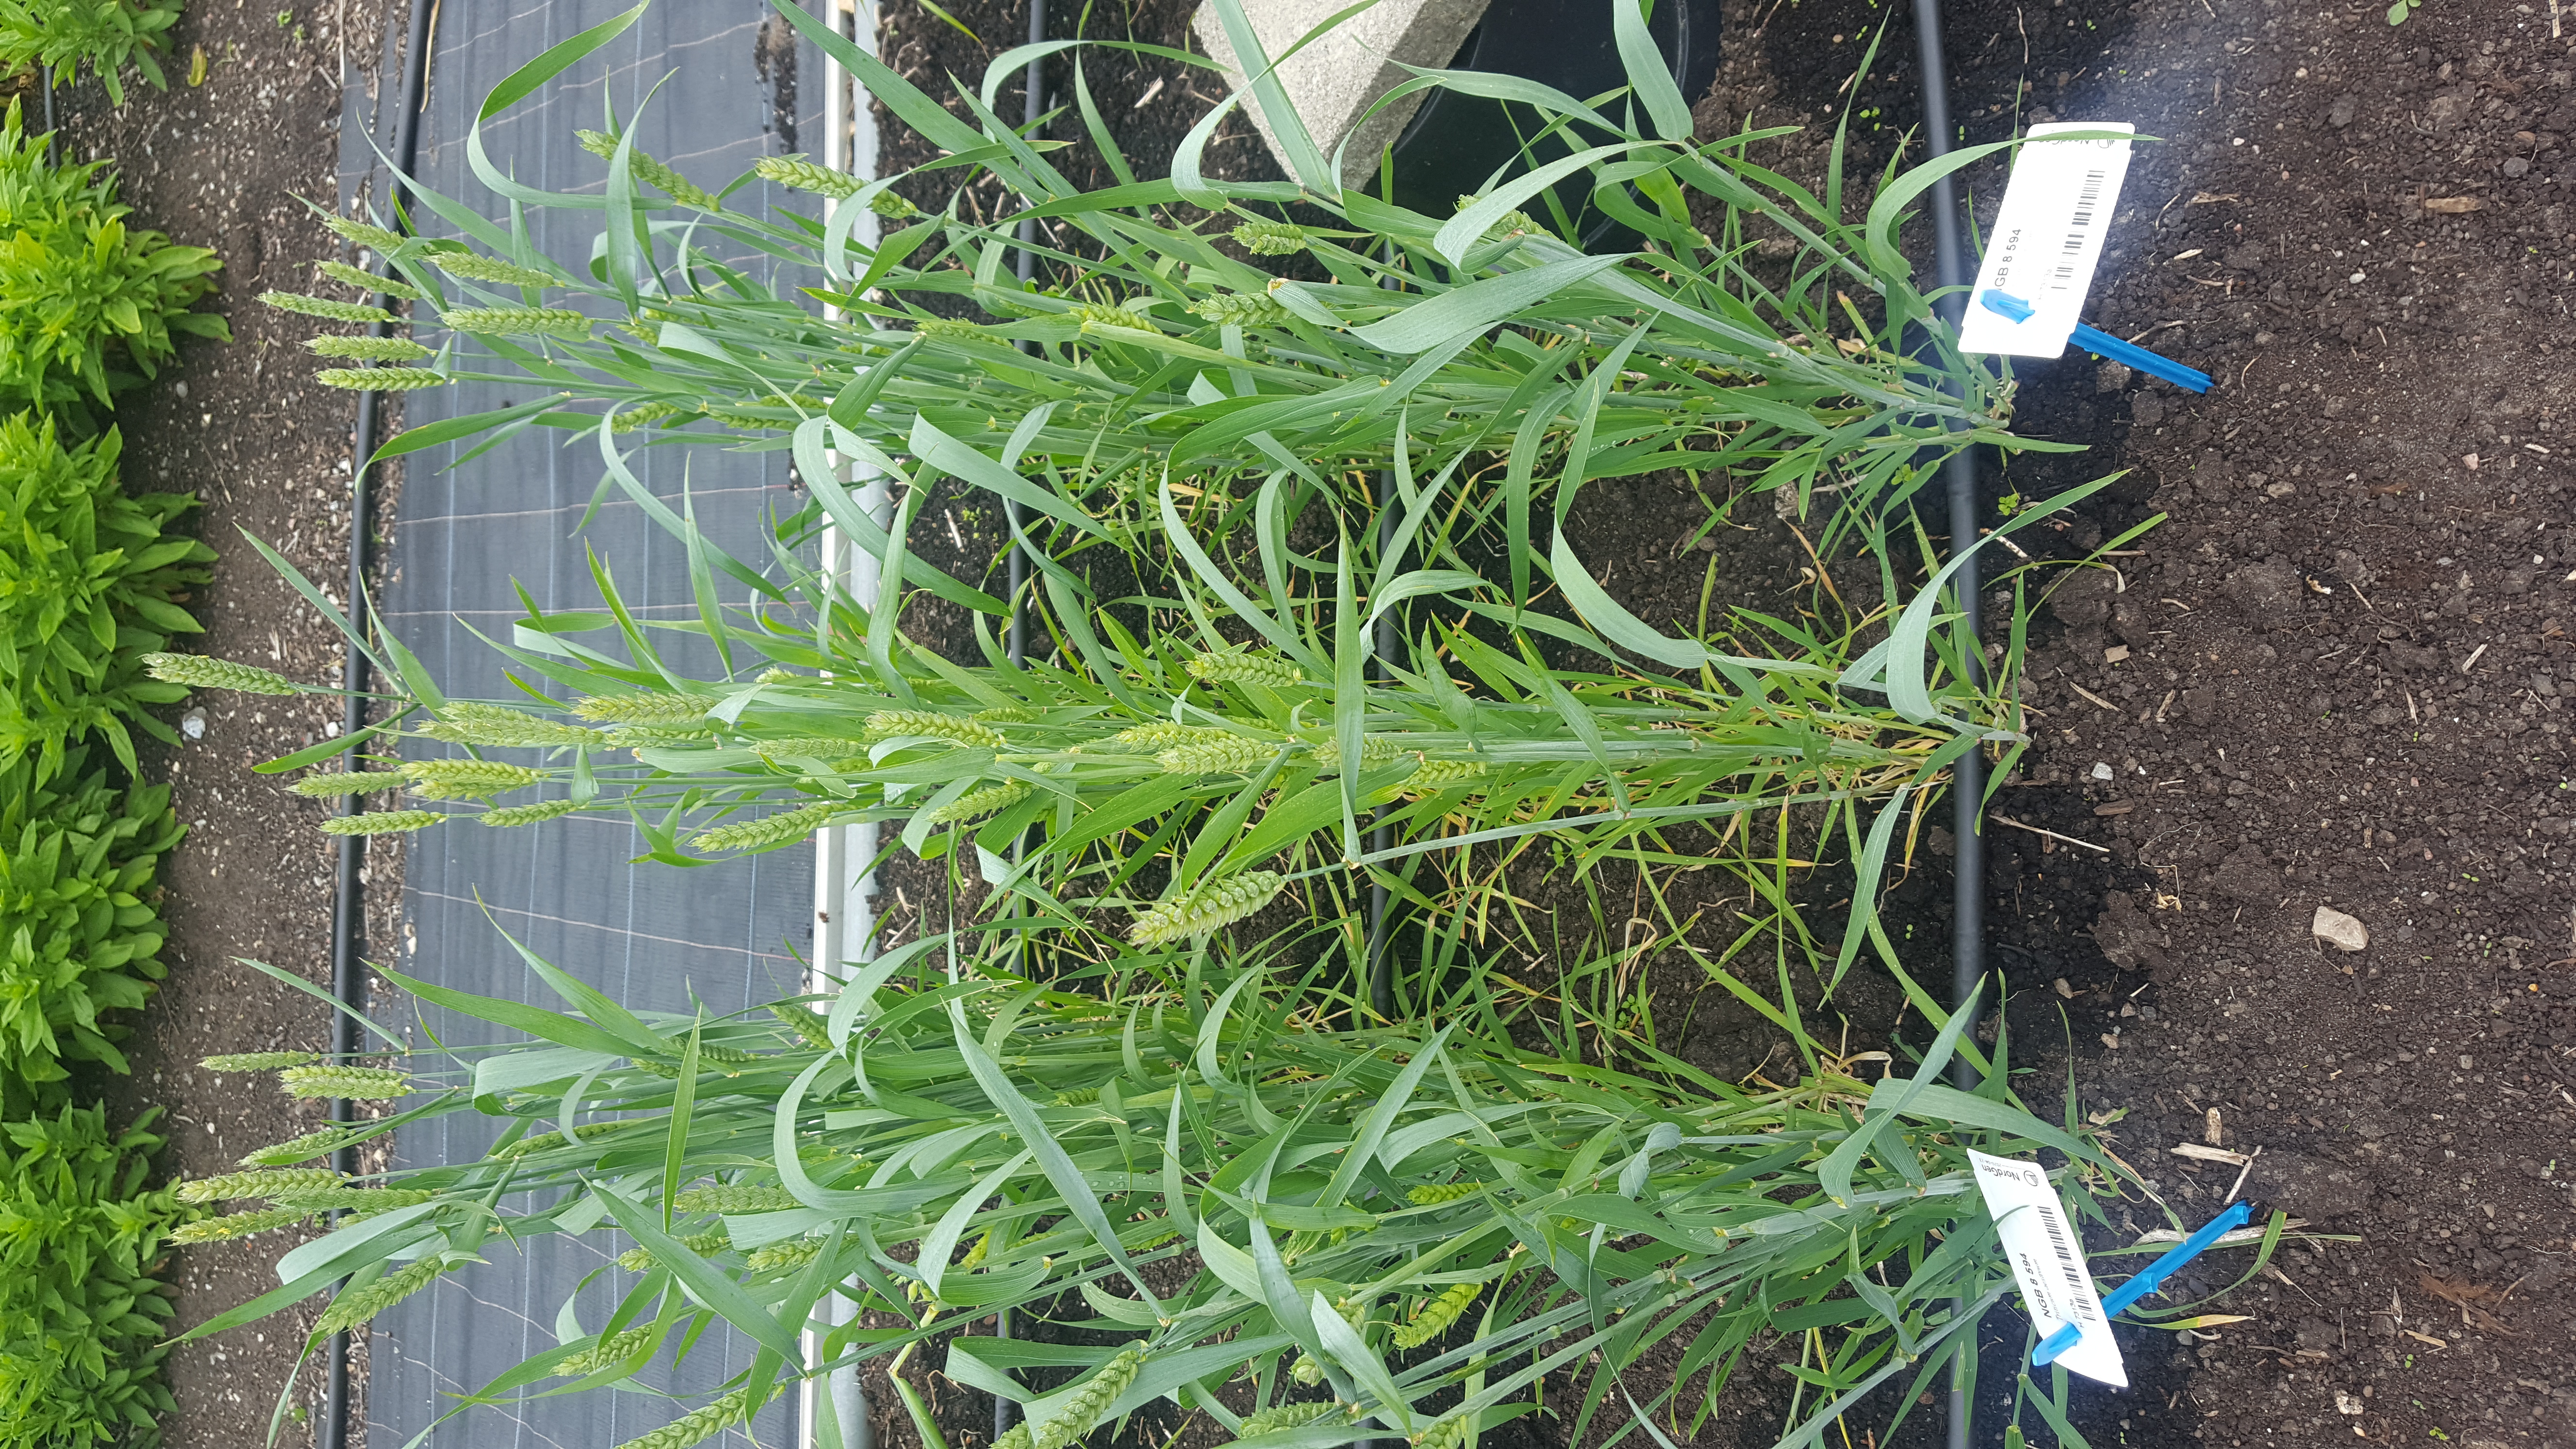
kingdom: Plantae
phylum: Tracheophyta
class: Liliopsida
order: Poales
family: Poaceae
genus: Triticum
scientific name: Triticum aestivum
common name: Common wheat
